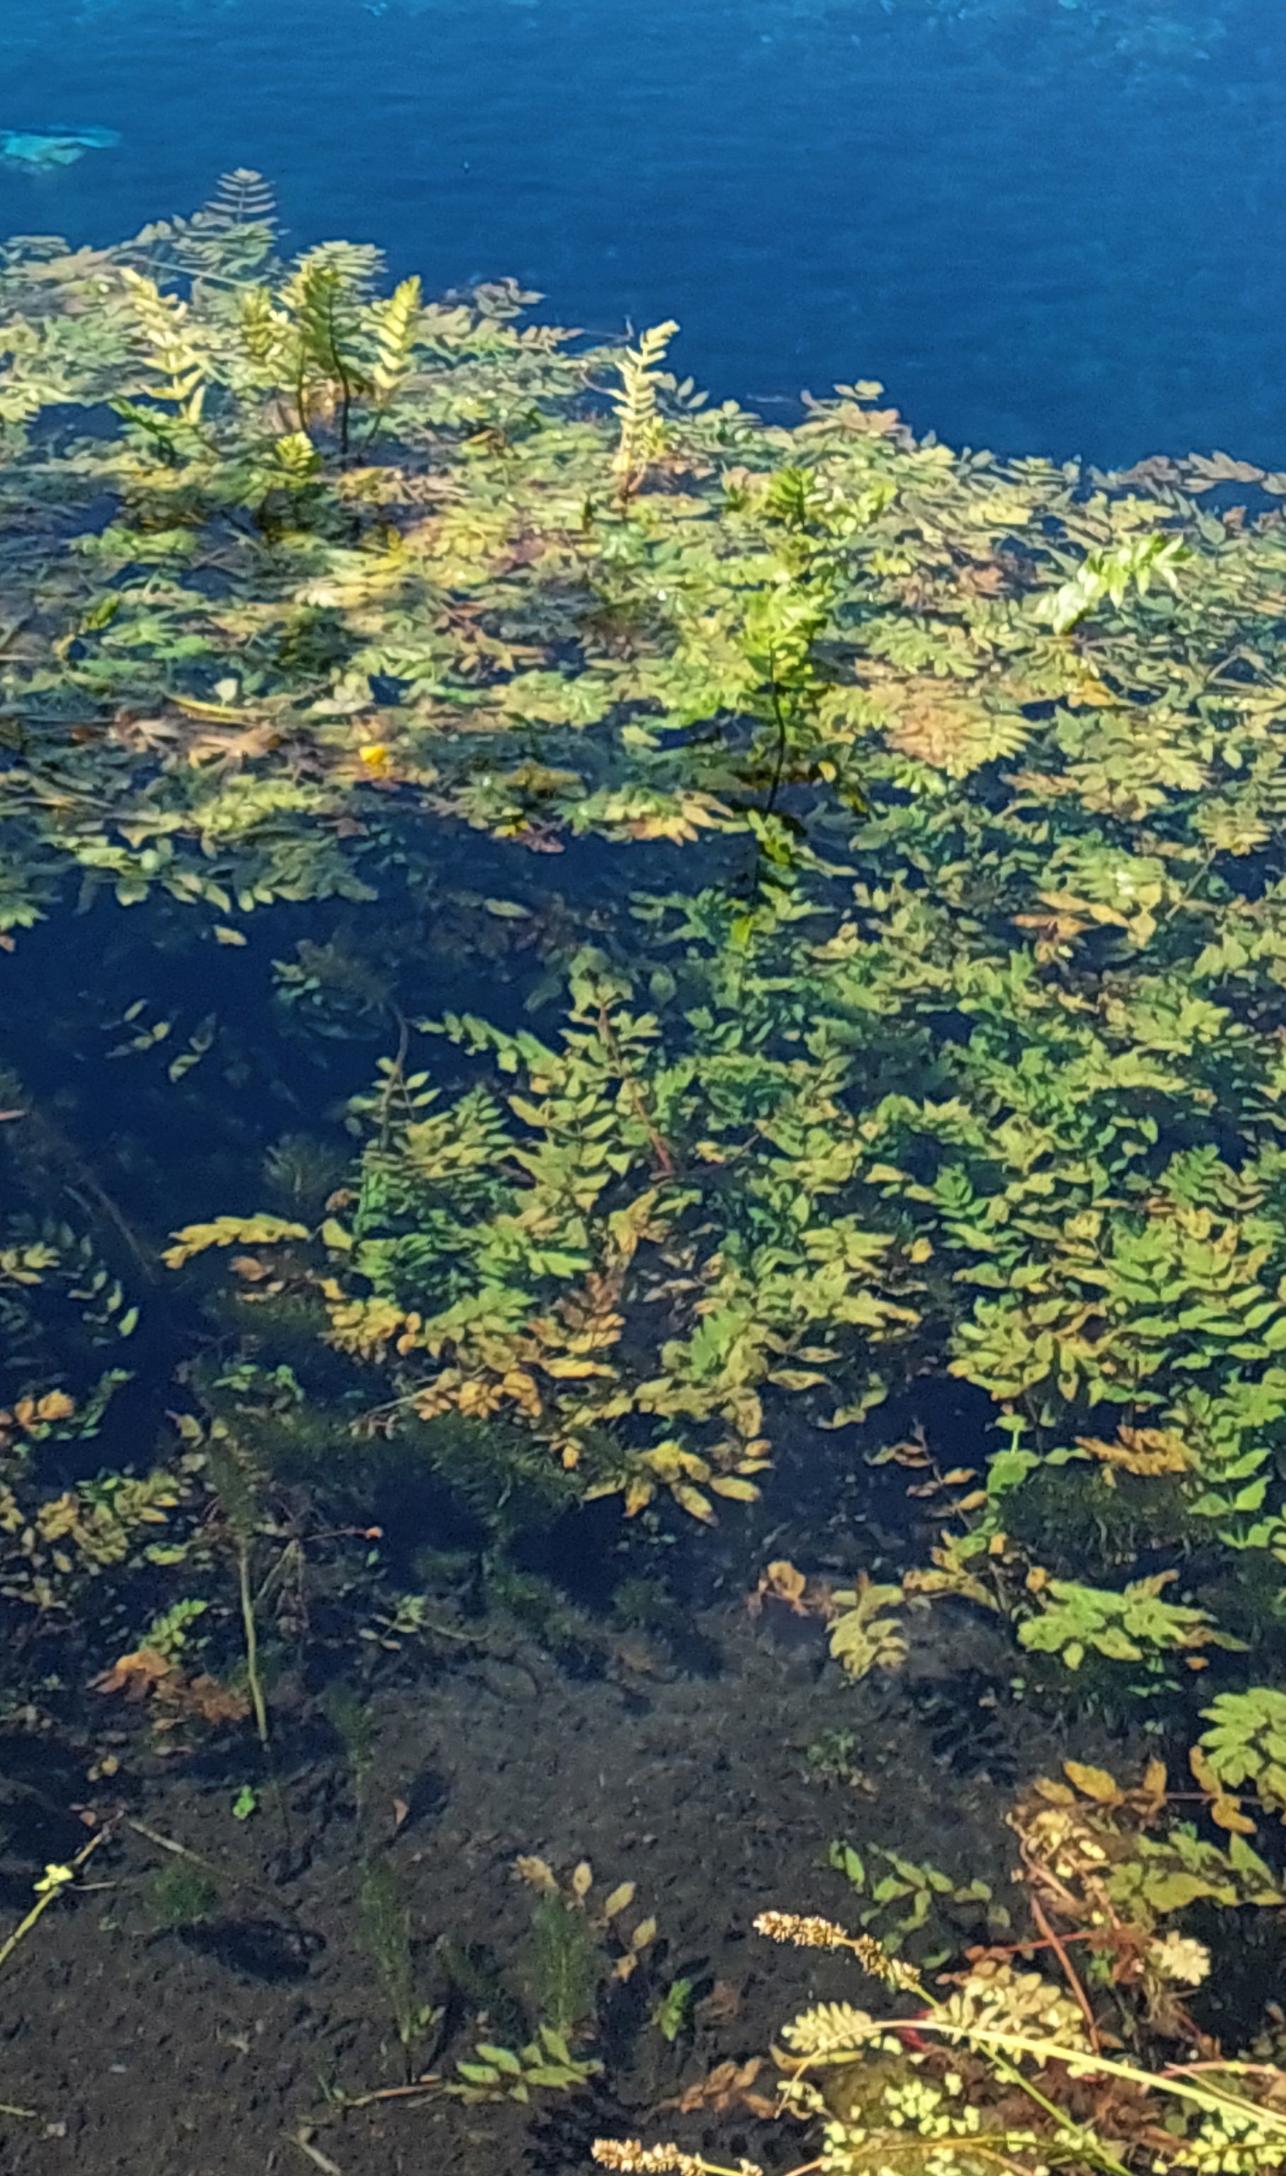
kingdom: Plantae
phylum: Tracheophyta
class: Magnoliopsida
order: Apiales
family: Apiaceae
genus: Berula
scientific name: Berula erecta
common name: Sideskærm
